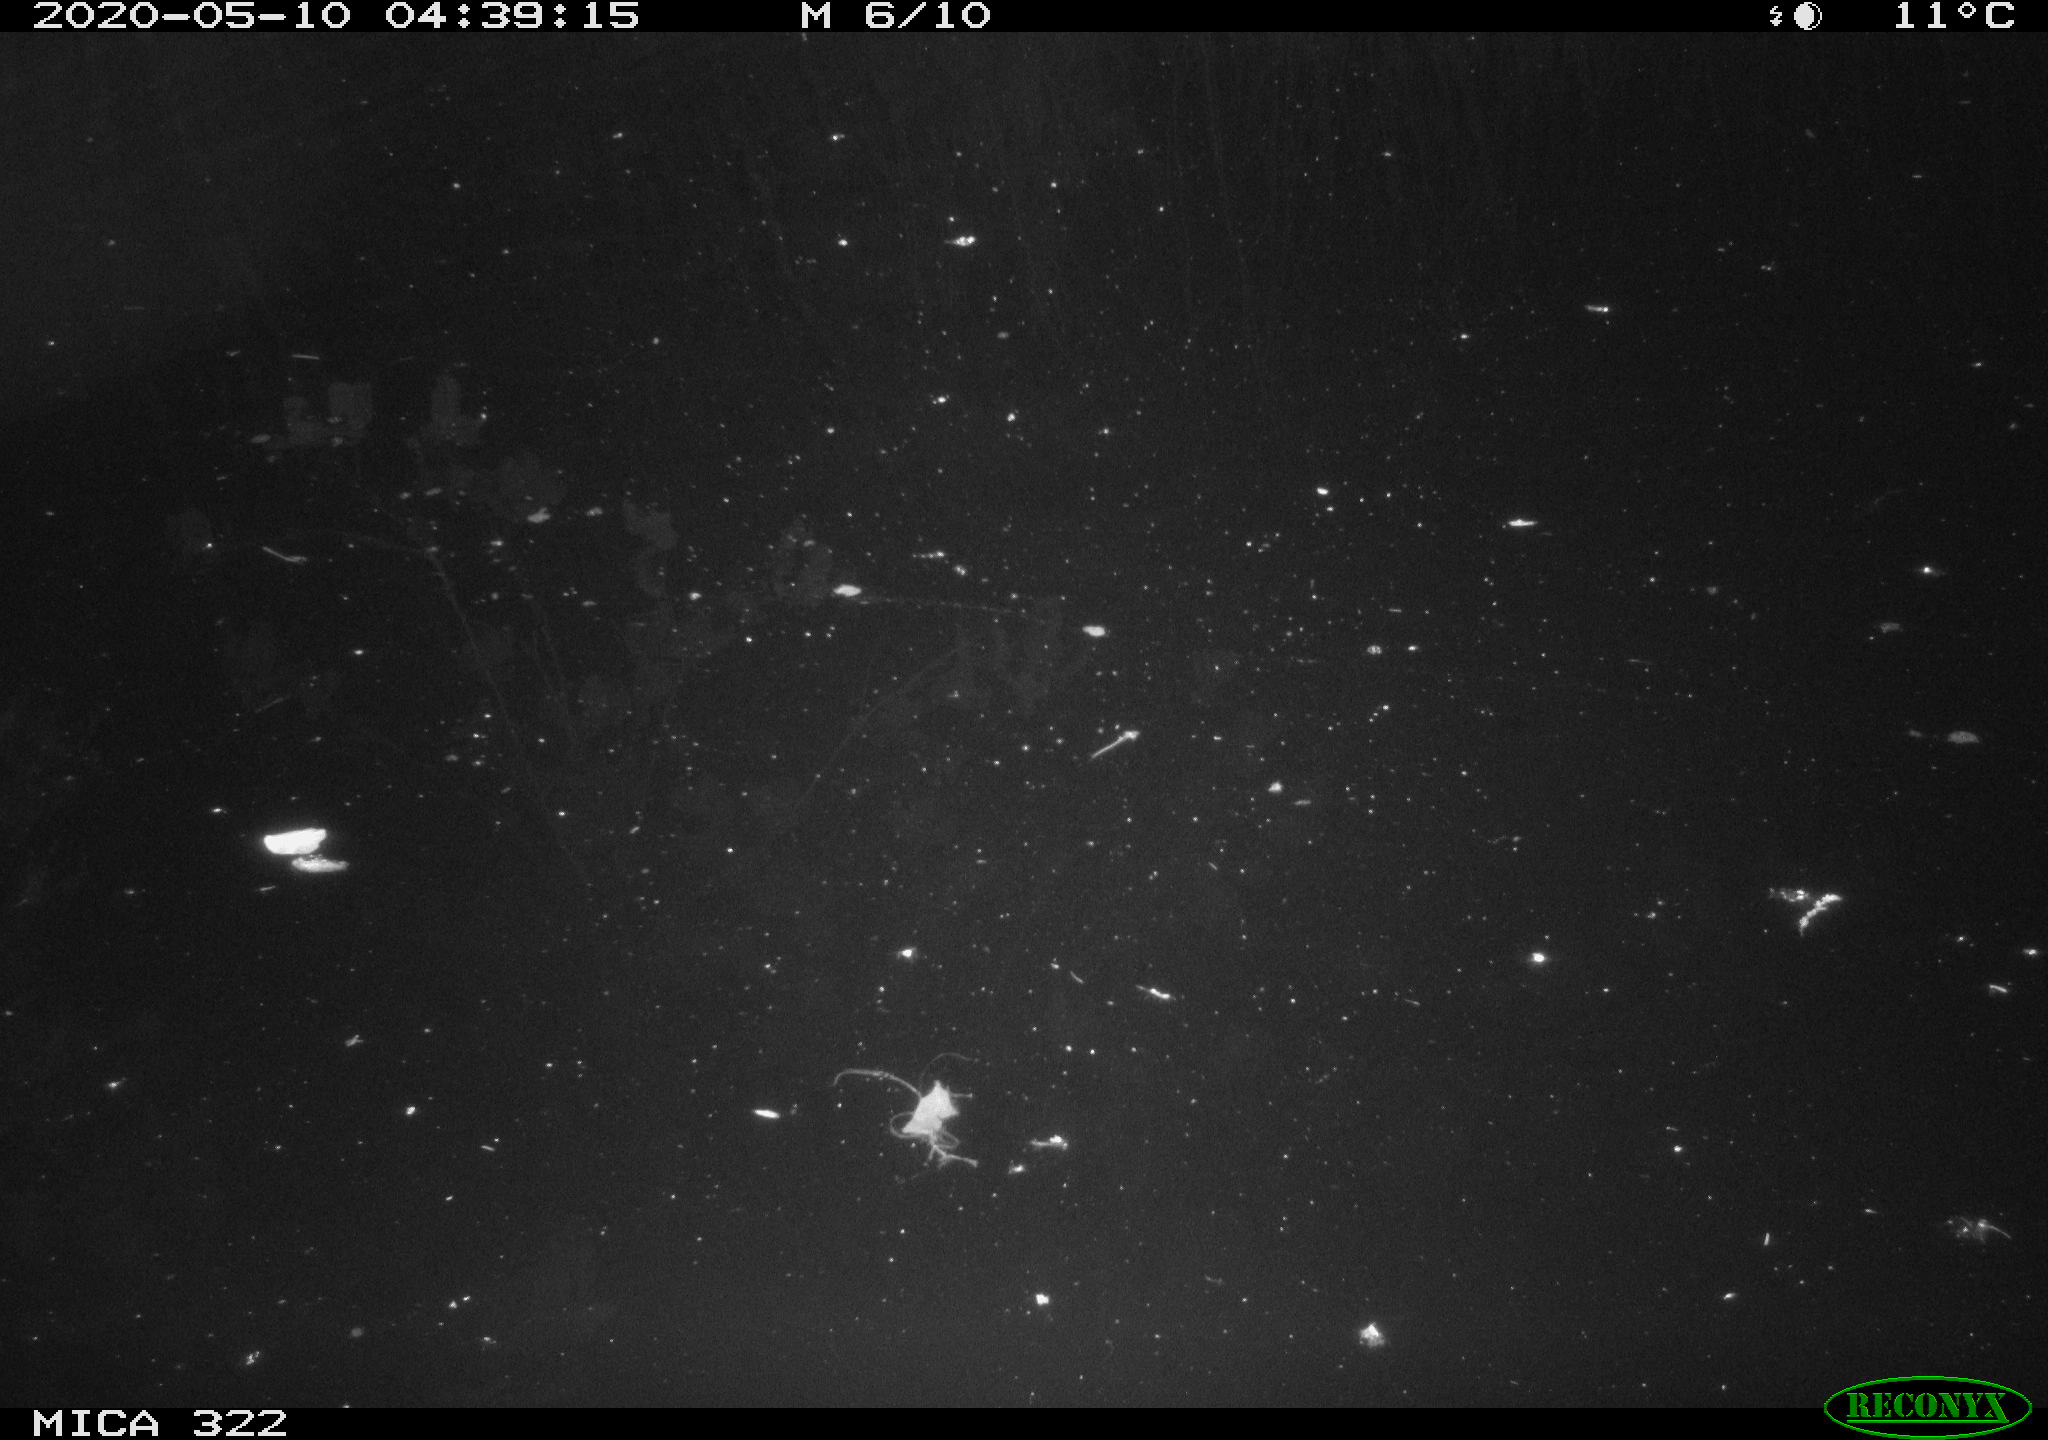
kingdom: Animalia
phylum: Chordata
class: Aves
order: Gruiformes
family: Rallidae
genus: Fulica
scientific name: Fulica atra
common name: Eurasian coot
